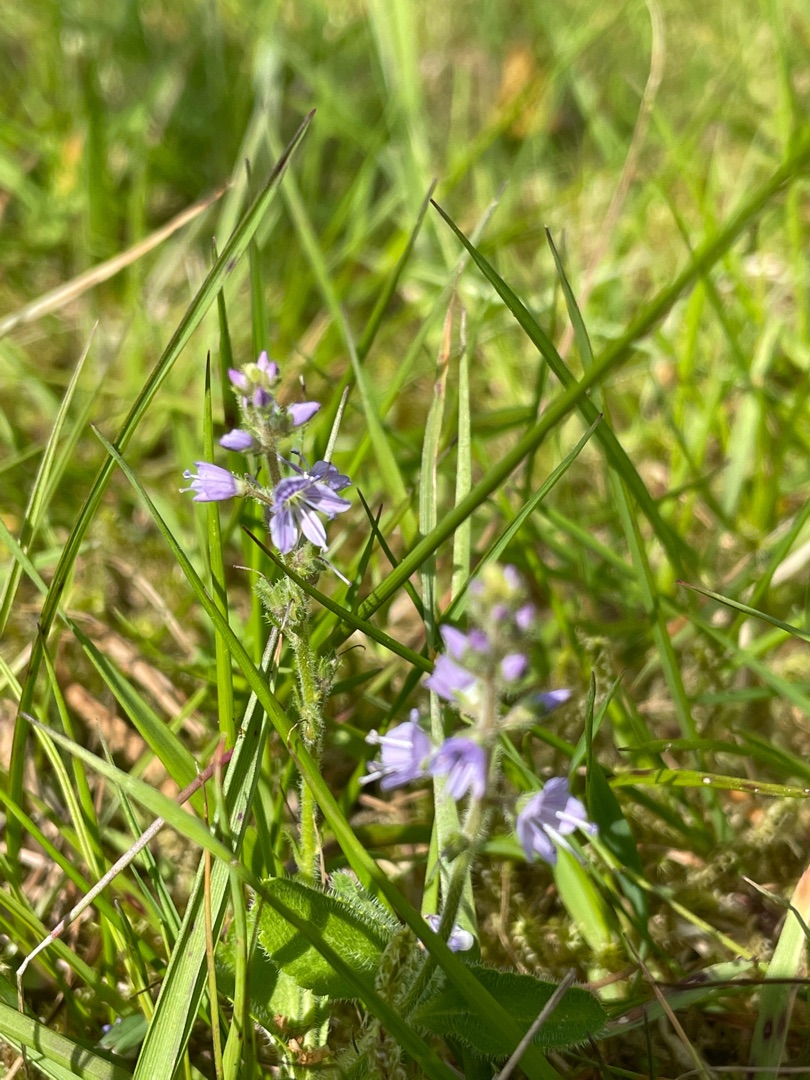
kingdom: Plantae
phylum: Tracheophyta
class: Magnoliopsida
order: Lamiales
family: Plantaginaceae
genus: Veronica
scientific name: Veronica officinalis
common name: Læge-ærenpris
